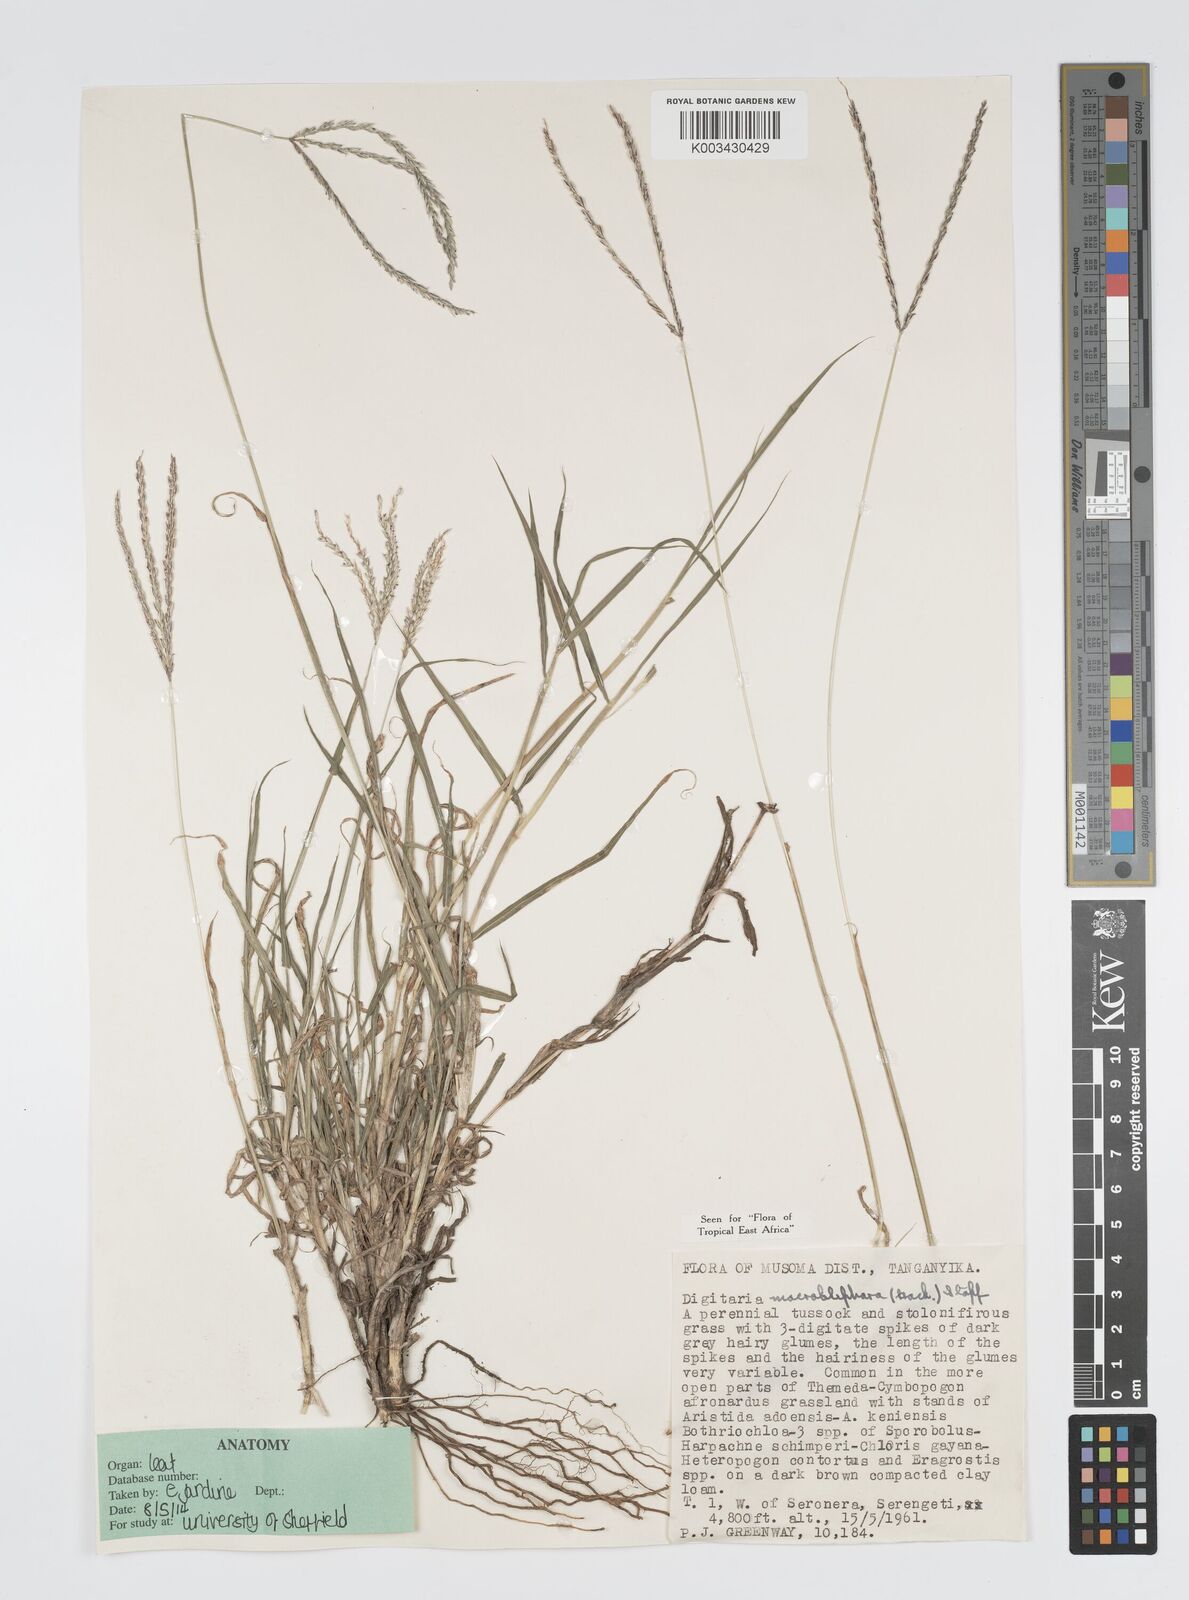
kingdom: Plantae
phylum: Tracheophyta
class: Liliopsida
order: Poales
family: Poaceae
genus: Digitaria
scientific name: Digitaria macroblephara
